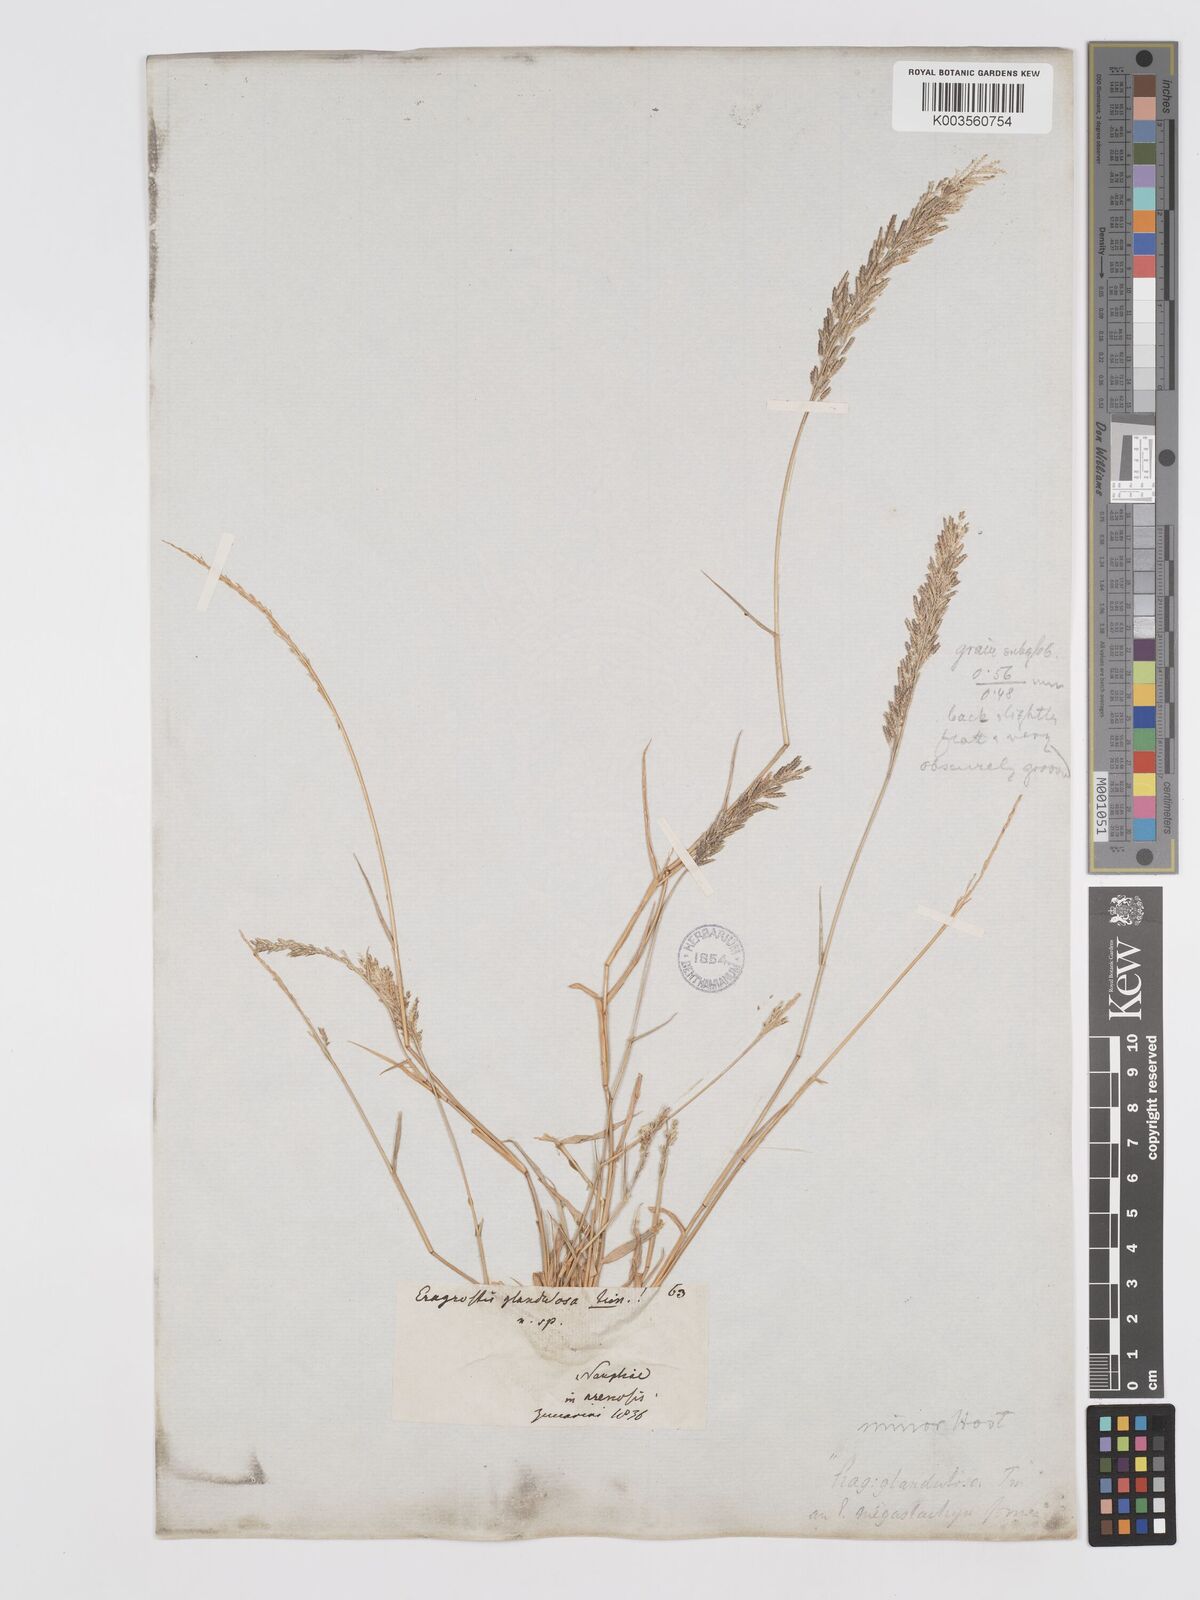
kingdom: Plantae
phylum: Tracheophyta
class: Liliopsida
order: Poales
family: Poaceae
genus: Eragrostis
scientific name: Eragrostis minor
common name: Small love-grass
